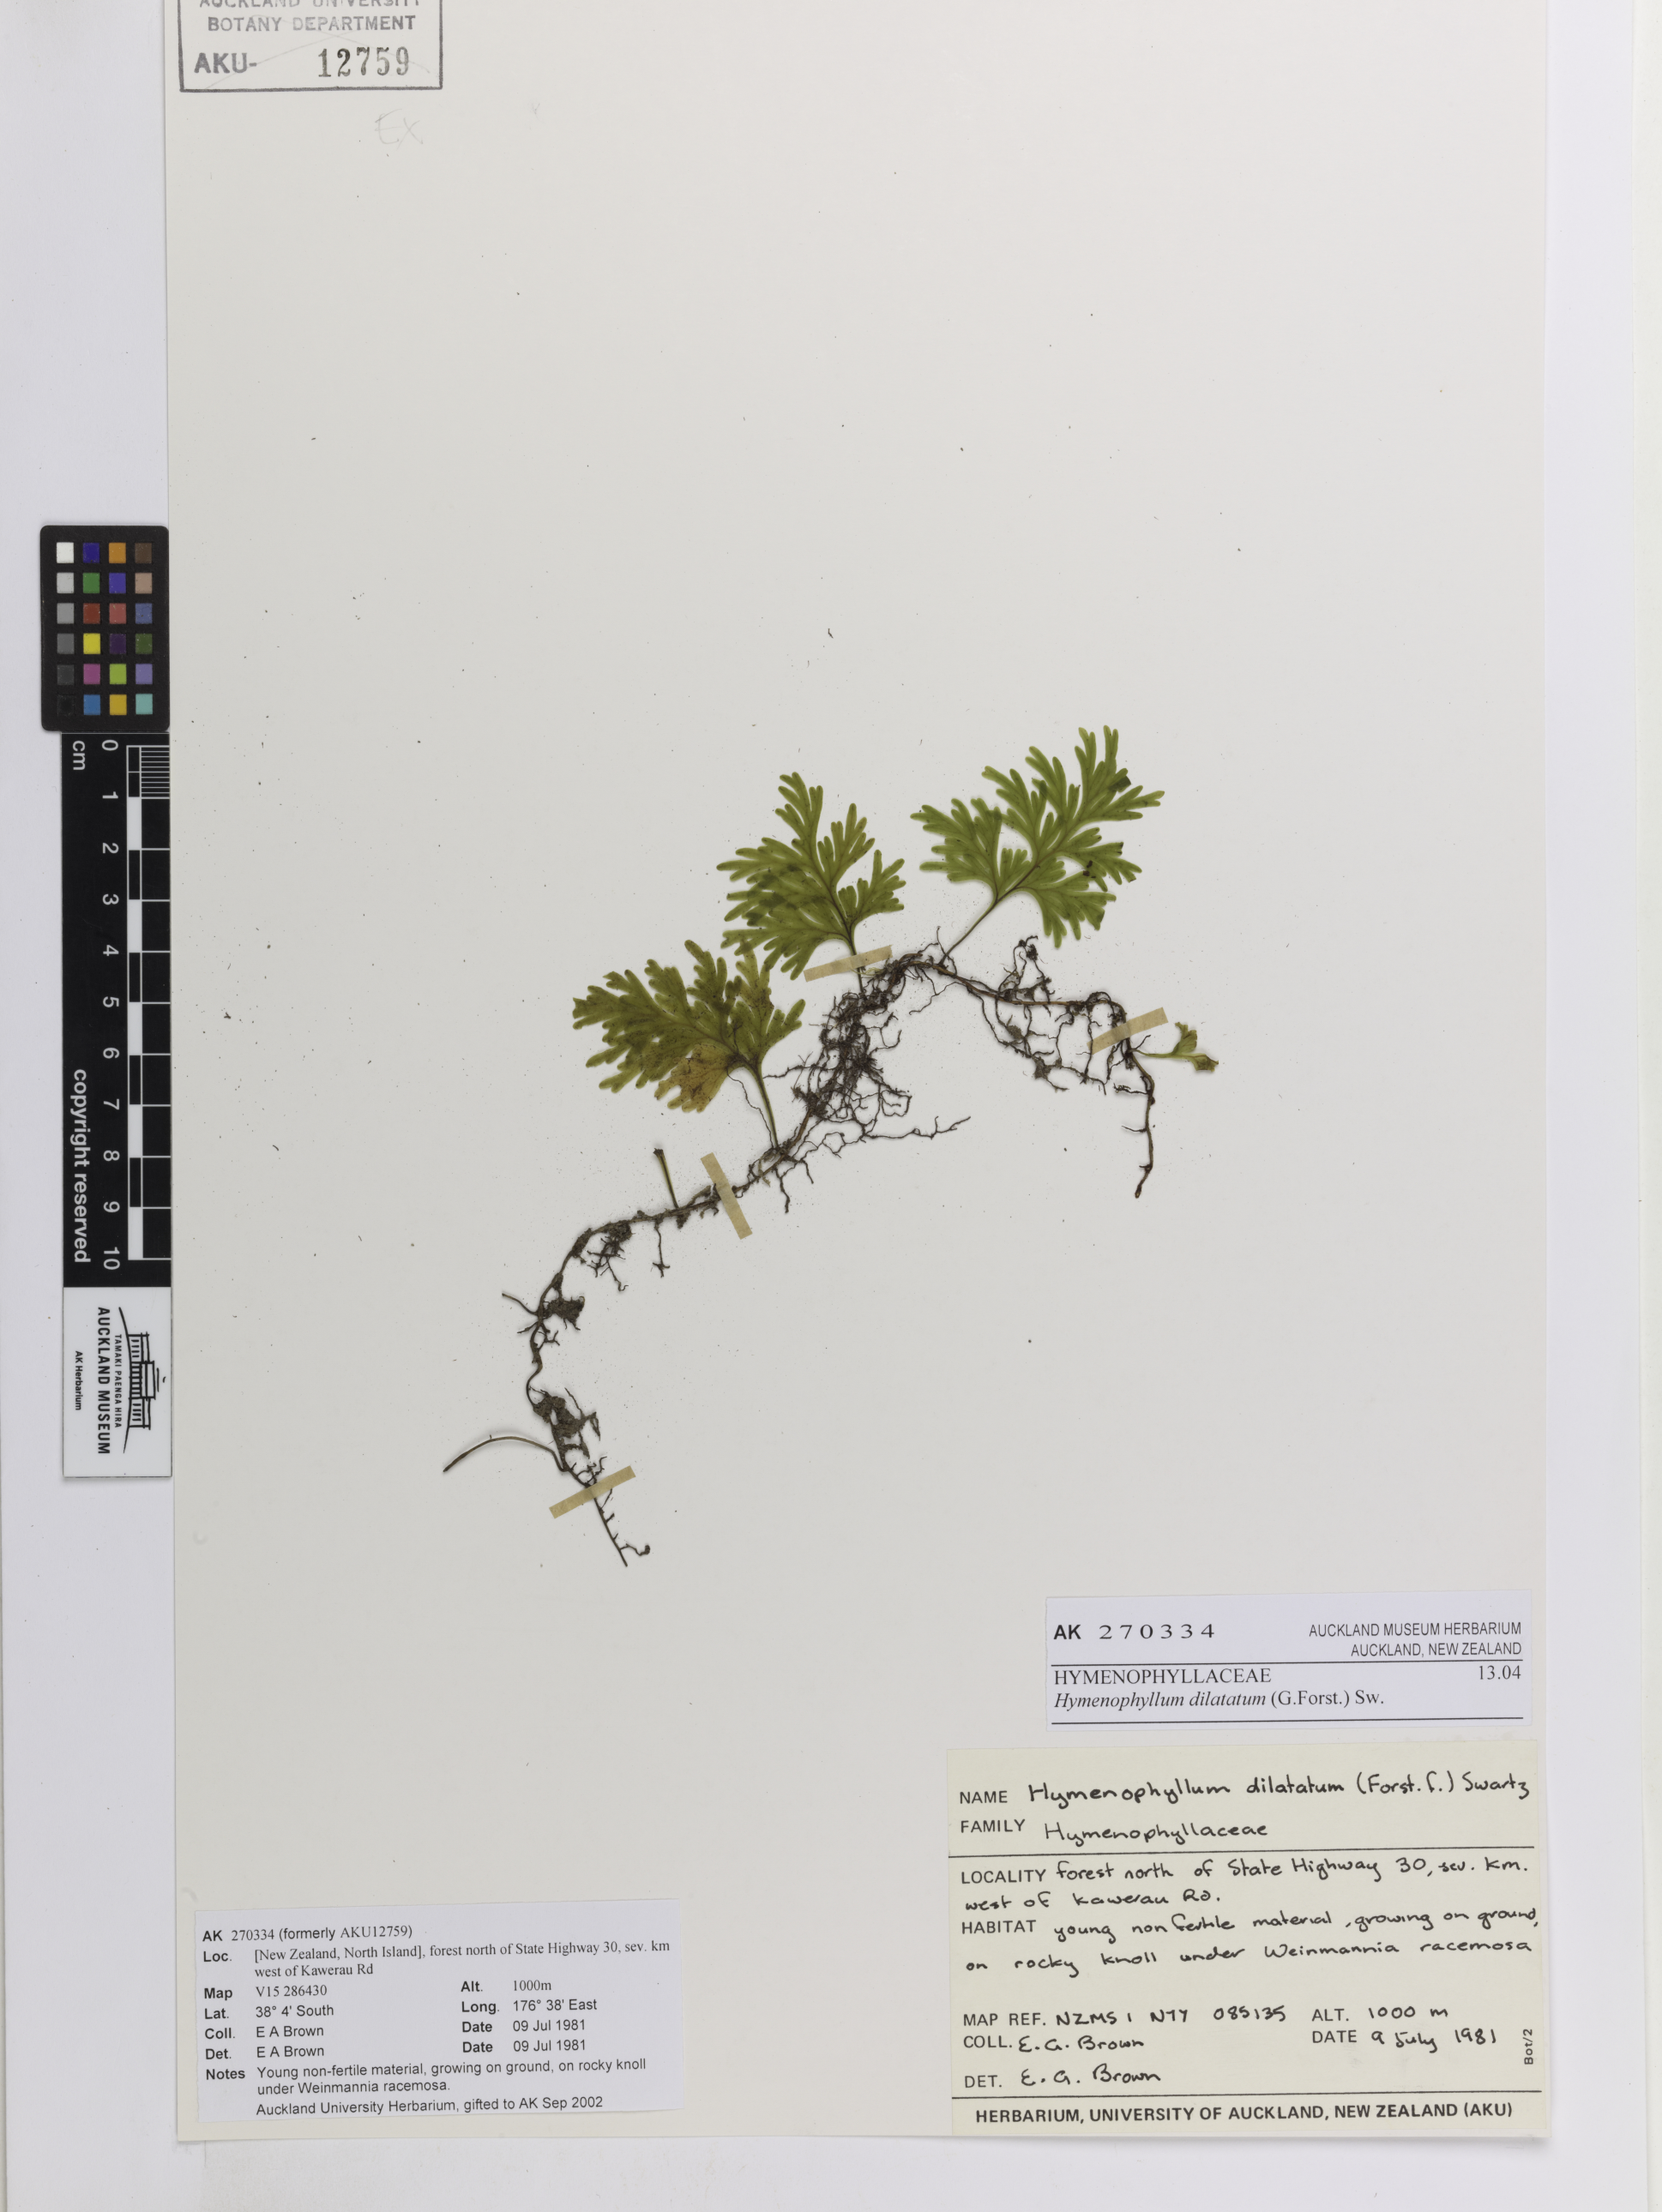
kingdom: Plantae
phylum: Tracheophyta
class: Polypodiopsida
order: Hymenophyllales
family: Hymenophyllaceae
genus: Hymenophyllum
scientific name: Hymenophyllum dilatatum
